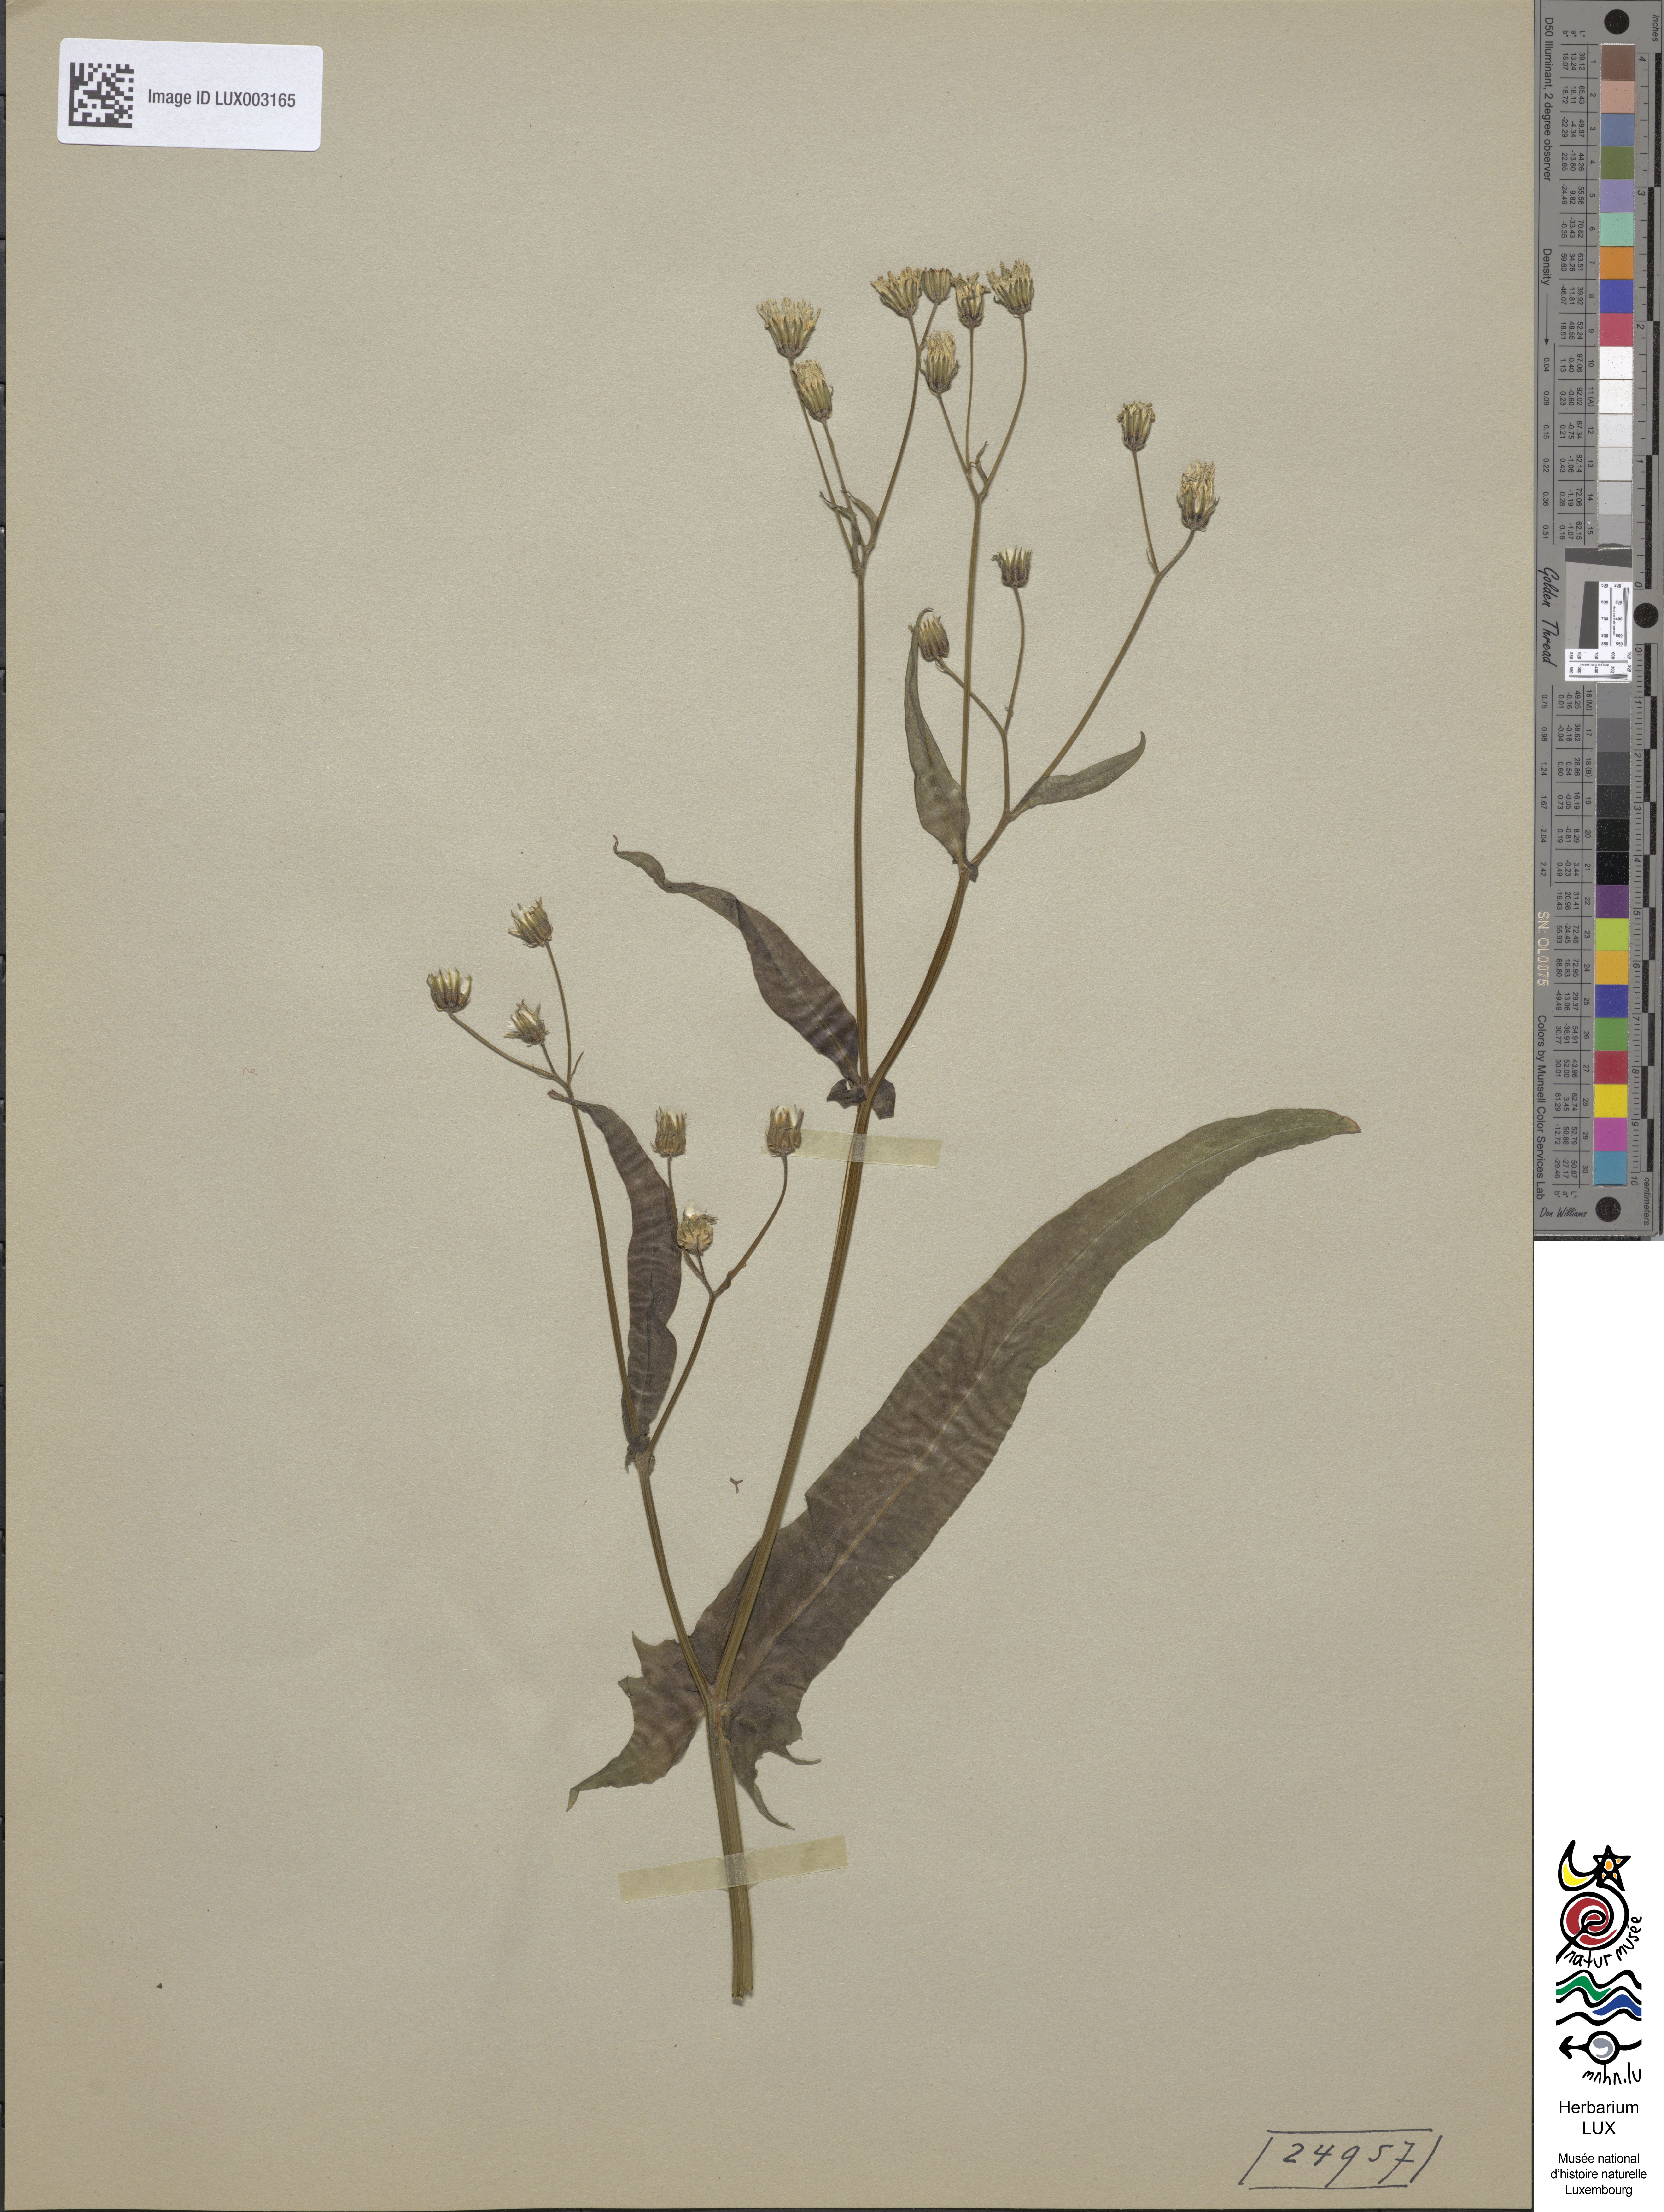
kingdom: Plantae
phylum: Tracheophyta
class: Magnoliopsida
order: Asterales
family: Asteraceae
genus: Crepis
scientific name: Crepis capillaris
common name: Smooth hawksbeard
